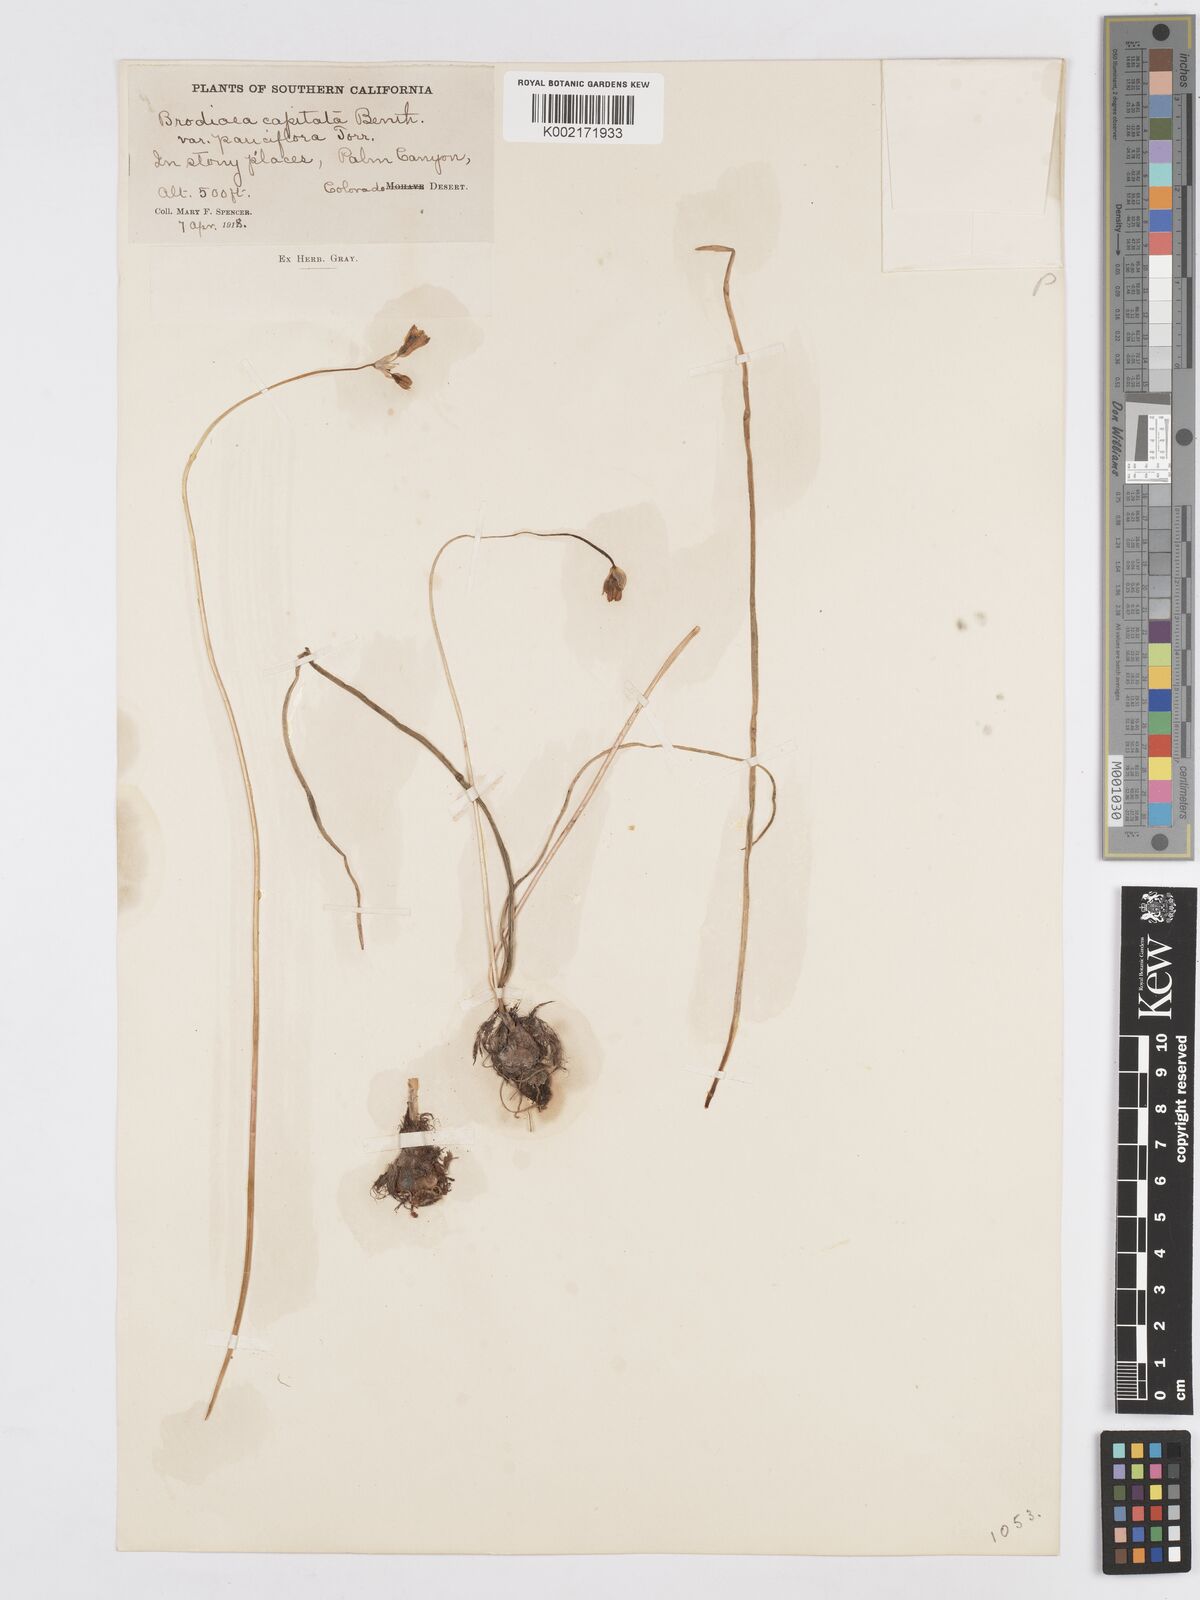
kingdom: Plantae
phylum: Tracheophyta
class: Liliopsida
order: Asparagales
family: Asparagaceae
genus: Dichelostemma
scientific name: Dichelostemma congestum
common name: Fork-tooth ookow
